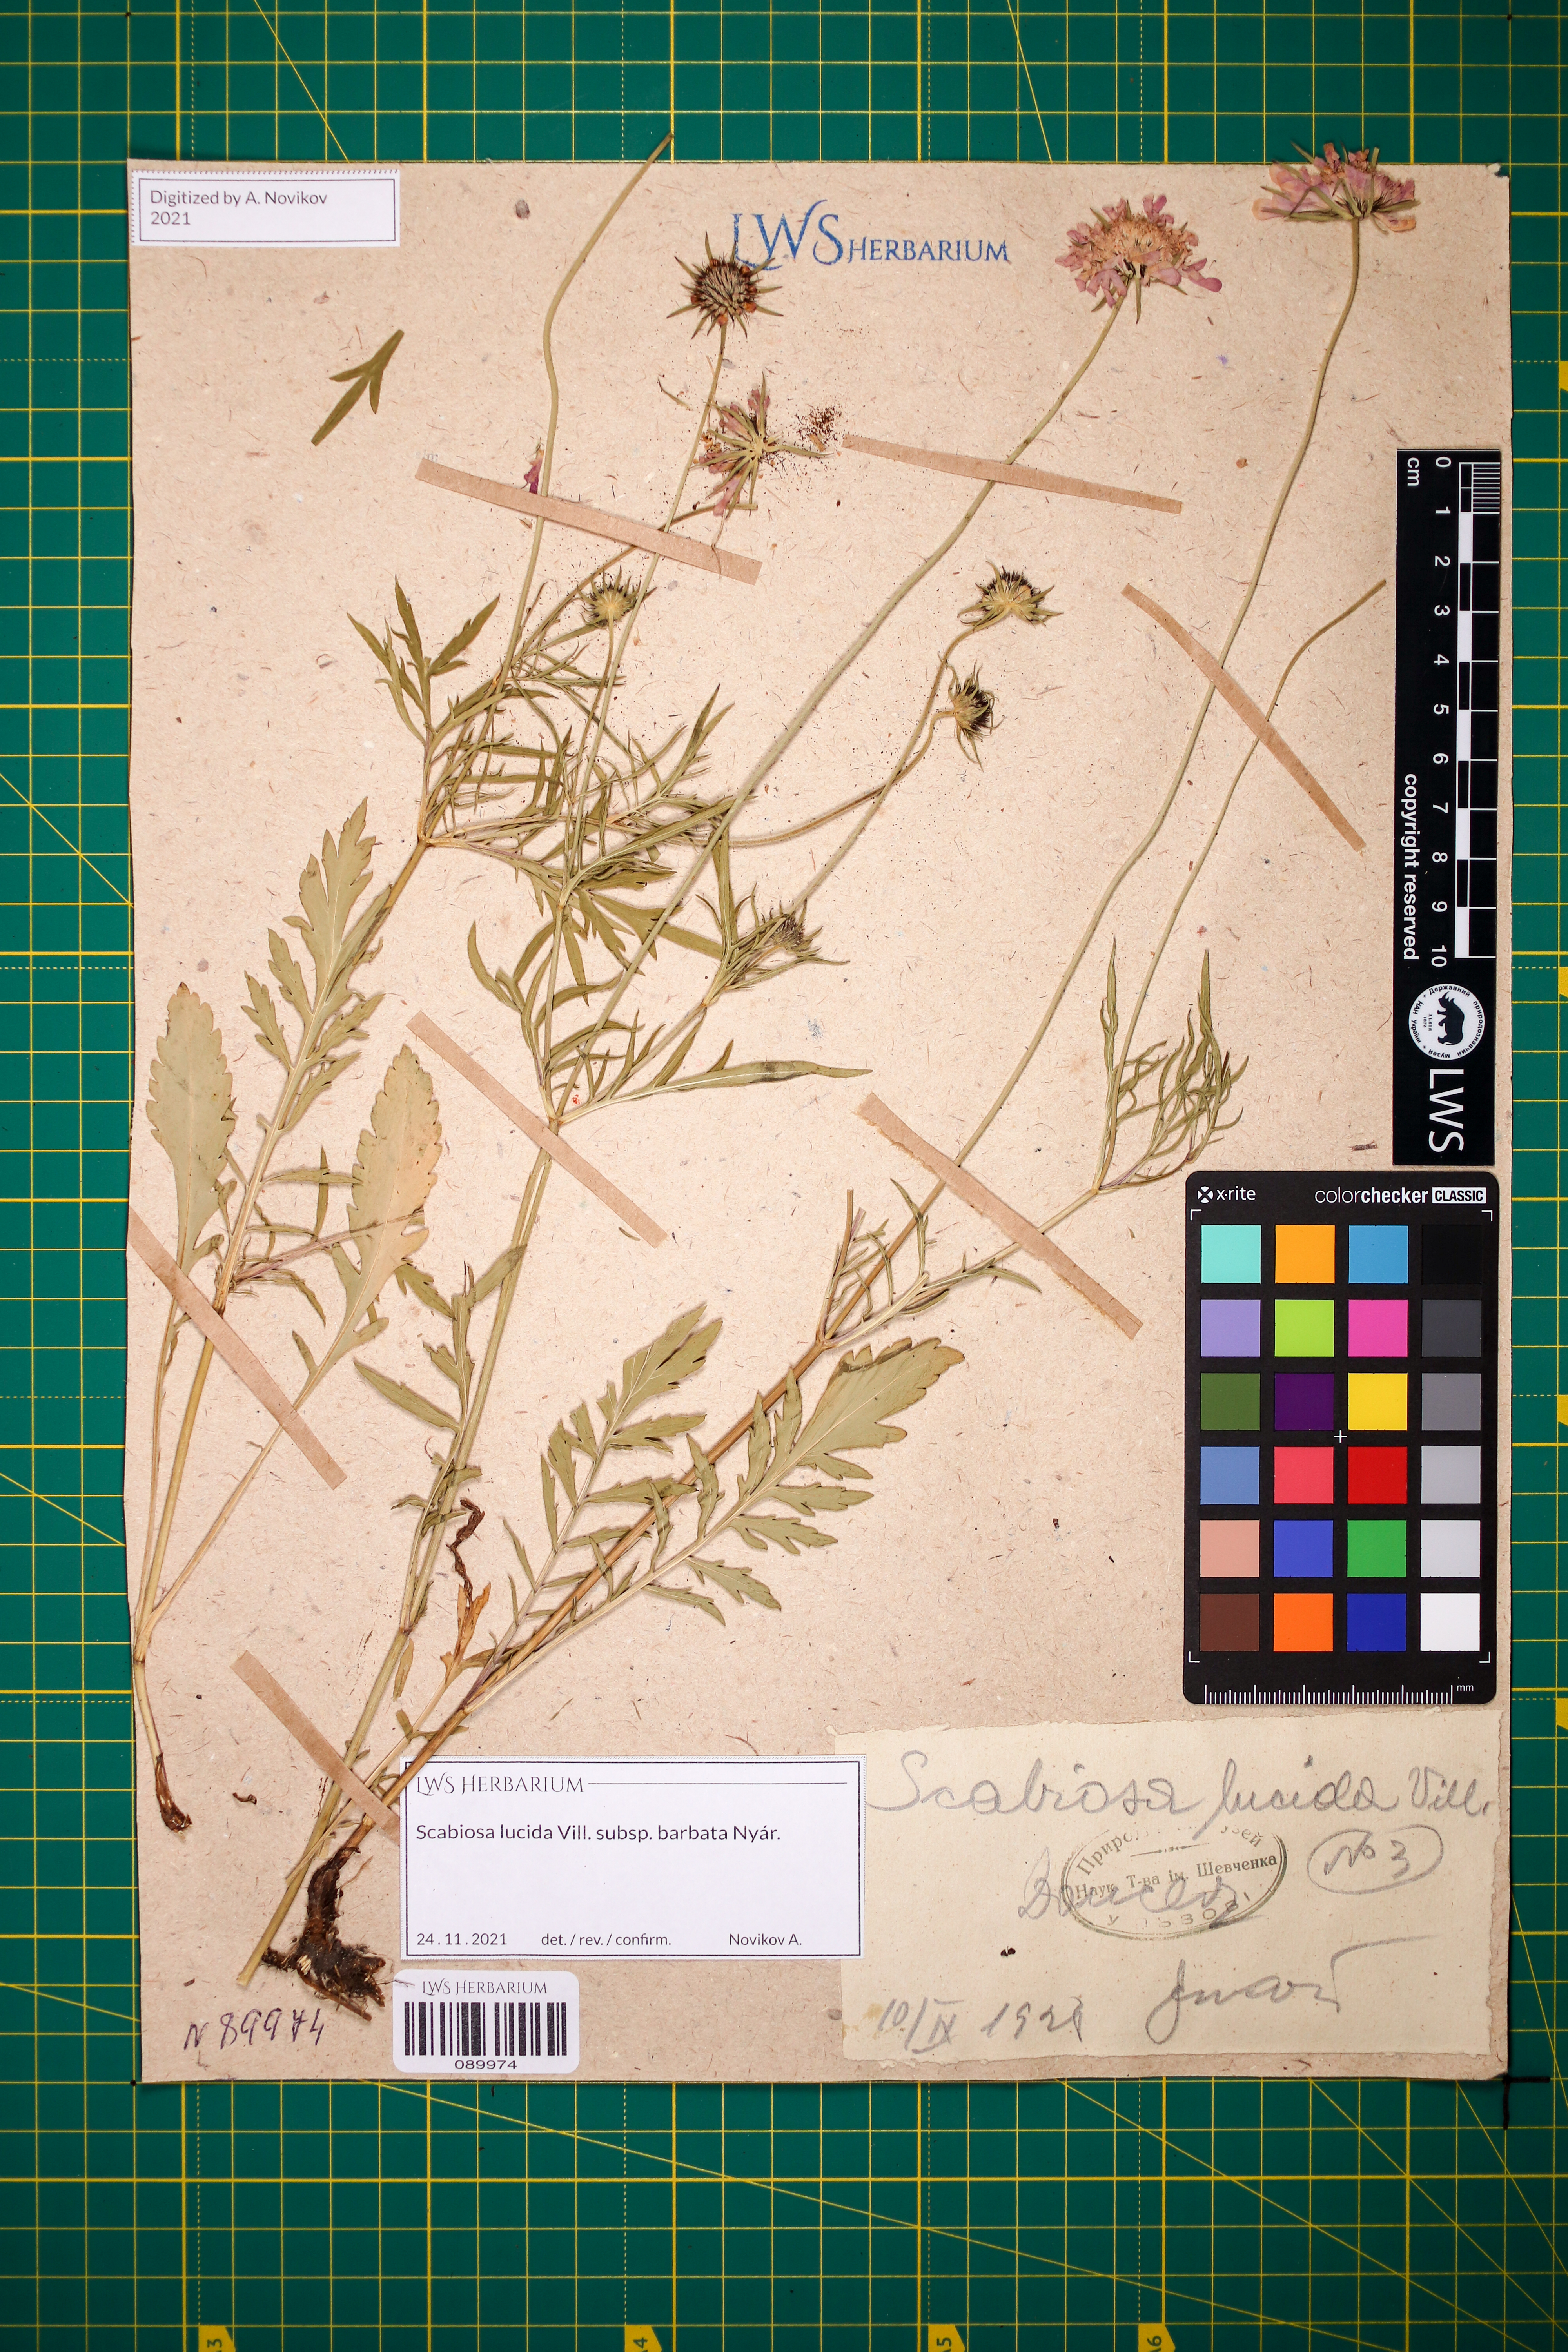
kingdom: Plantae
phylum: Tracheophyta
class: Magnoliopsida
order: Dipsacales
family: Caprifoliaceae
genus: Scabiosa
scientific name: Scabiosa lucida
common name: Shining scabious
